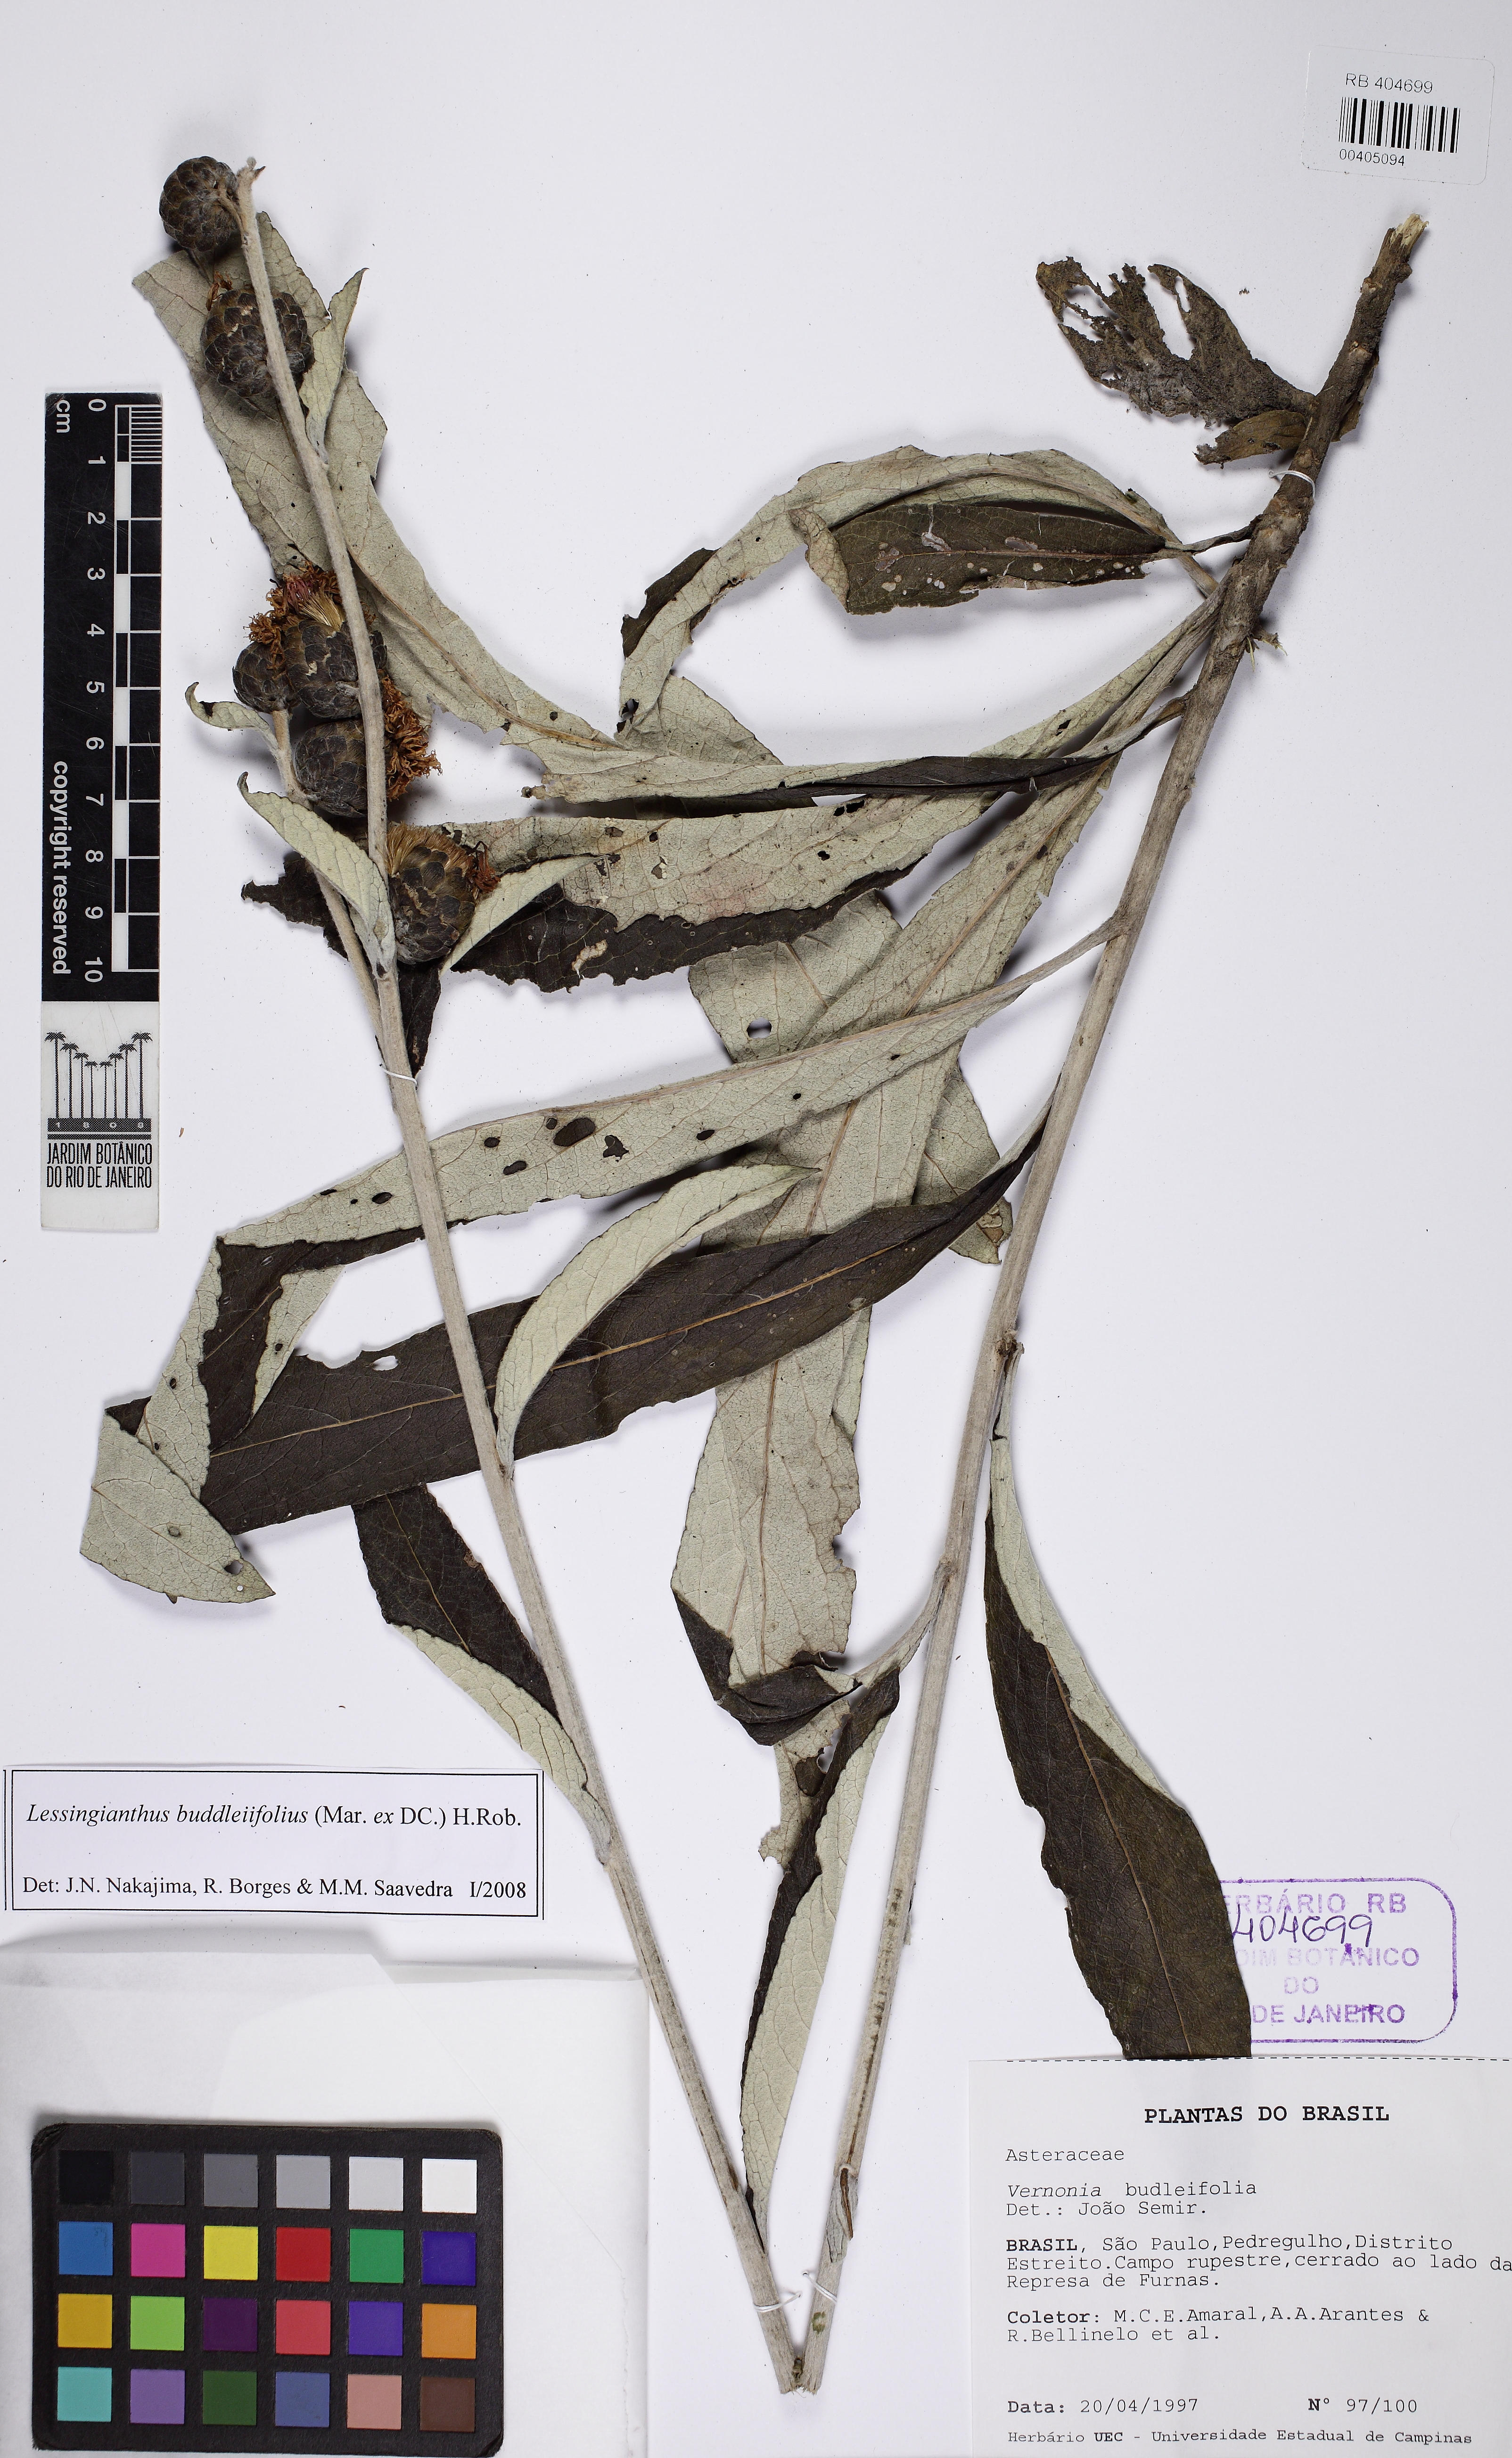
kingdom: Plantae
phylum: Tracheophyta
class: Magnoliopsida
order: Asterales
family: Asteraceae
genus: Lessingianthus
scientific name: Lessingianthus buddlejifolius
